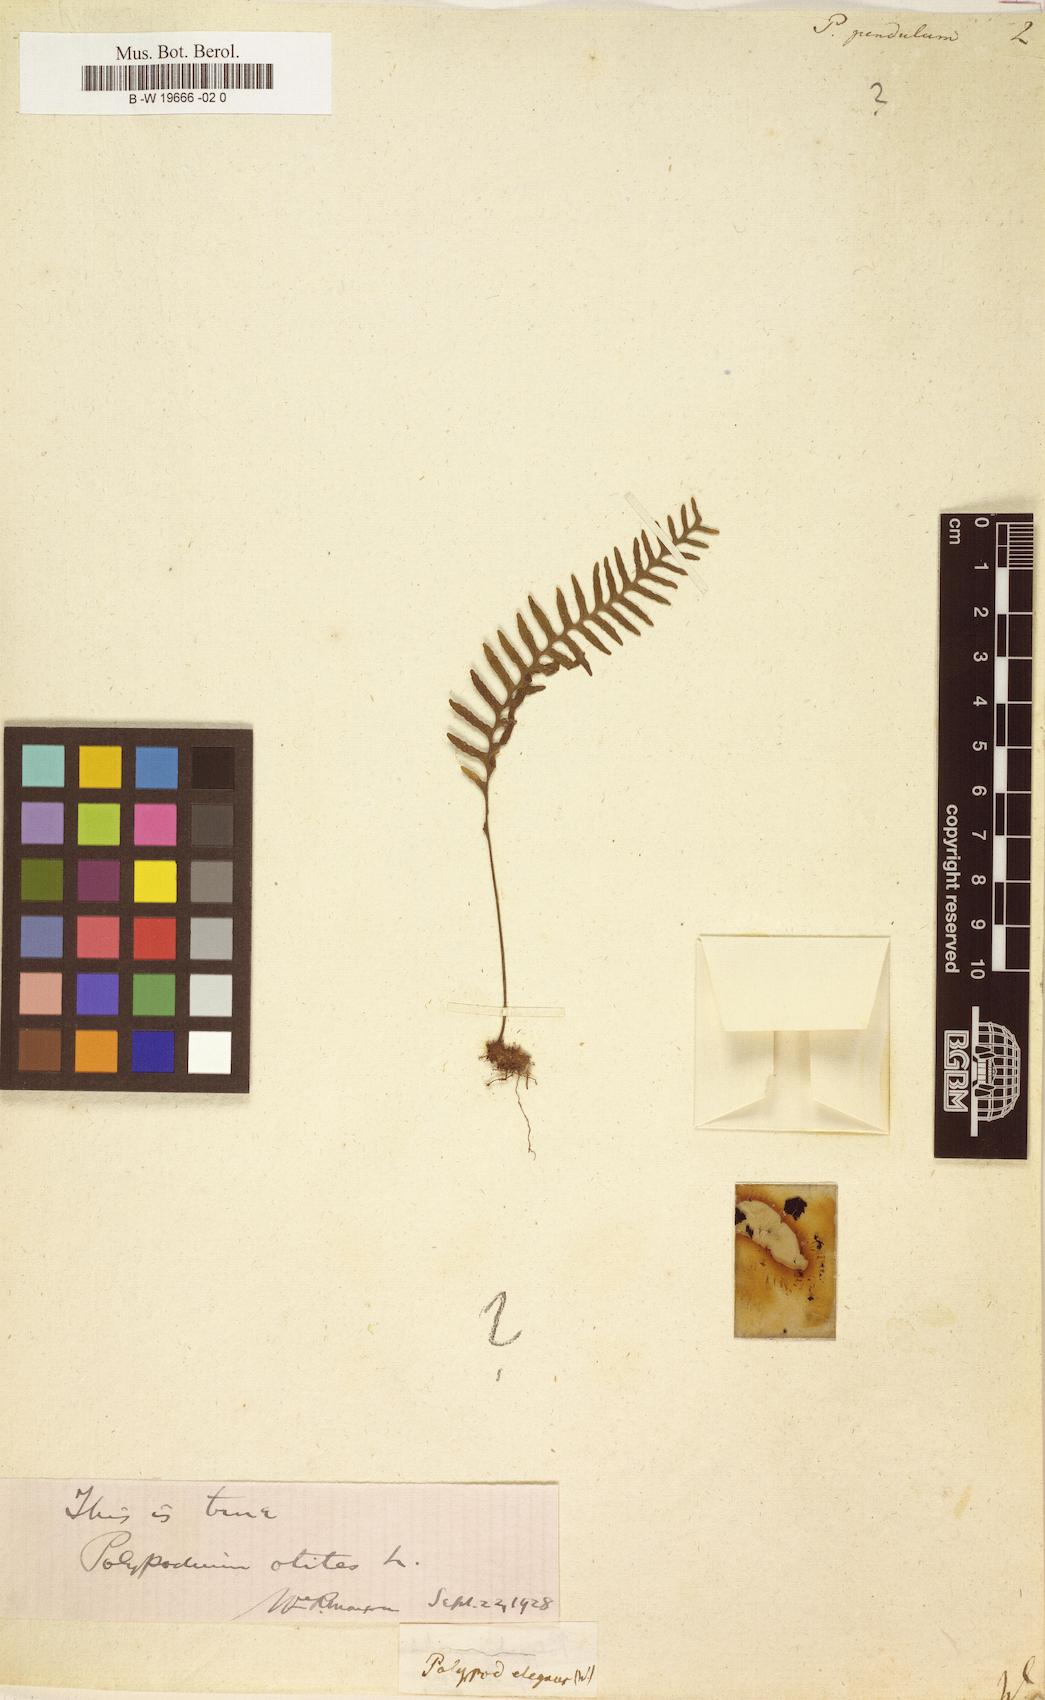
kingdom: Plantae
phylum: Tracheophyta
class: Polypodiopsida
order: Polypodiales
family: Polypodiaceae
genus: Lellingeria
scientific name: Lellingeria pendula
